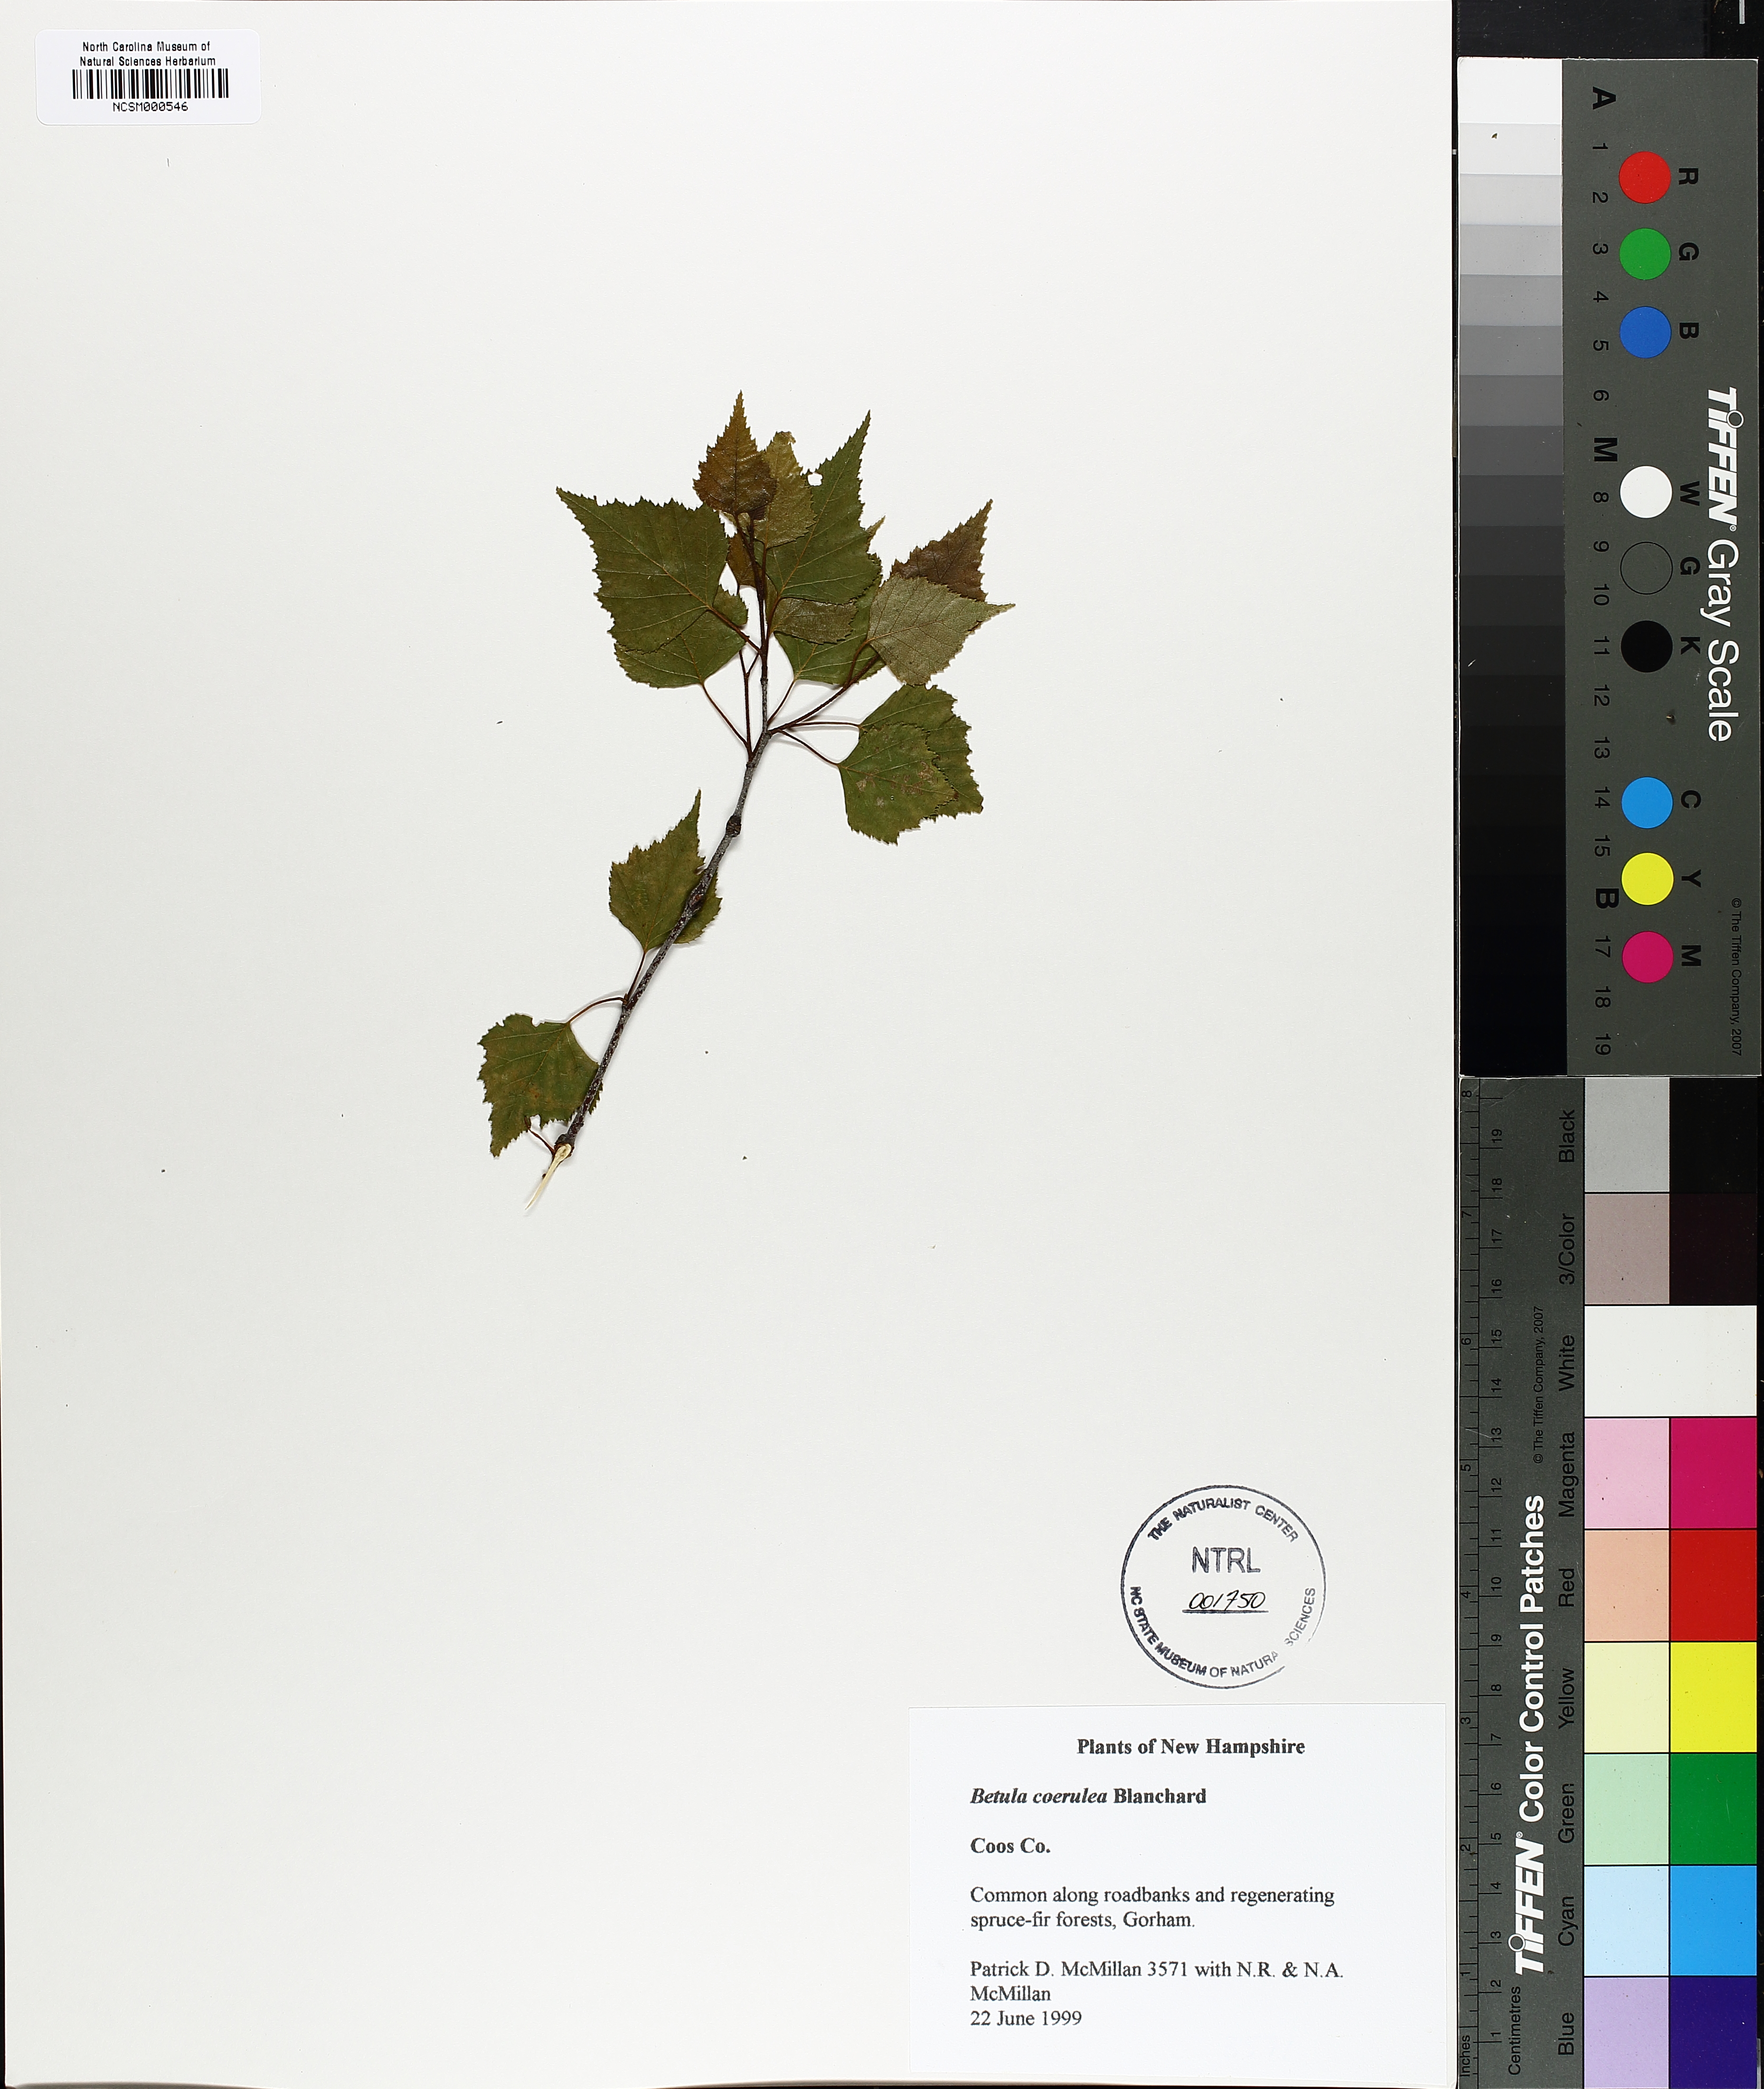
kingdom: Plantae
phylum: Tracheophyta
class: Magnoliopsida
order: Fagales
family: Betulaceae
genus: Betula
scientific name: Betula caerulea
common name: Blue birch
